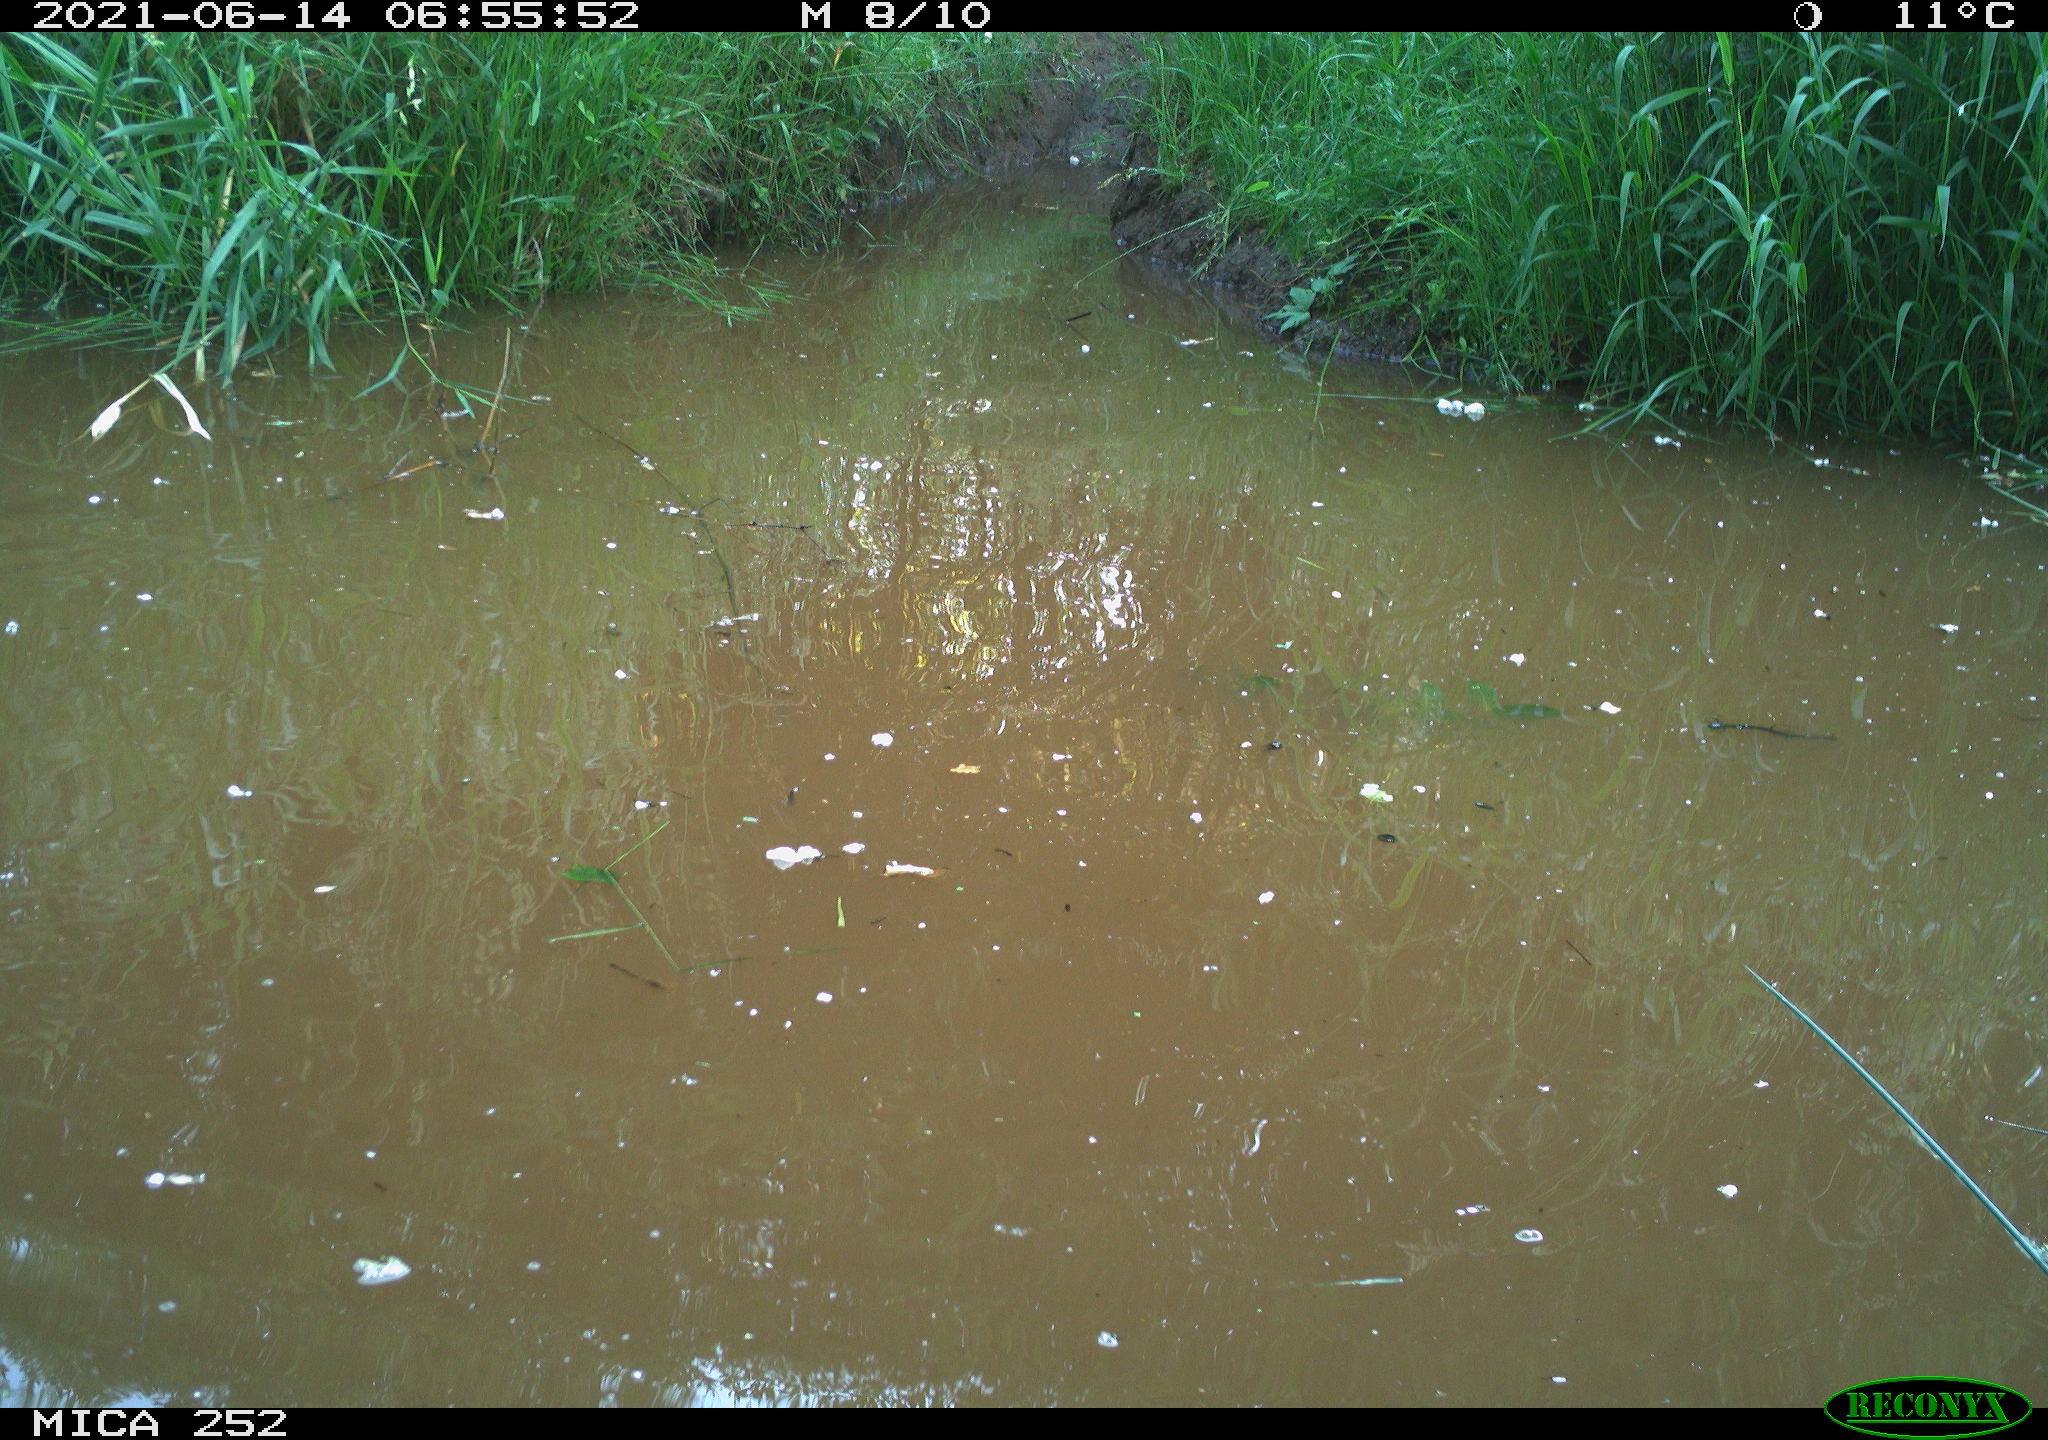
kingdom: Animalia
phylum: Chordata
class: Aves
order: Anseriformes
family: Anatidae
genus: Anas
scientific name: Anas
